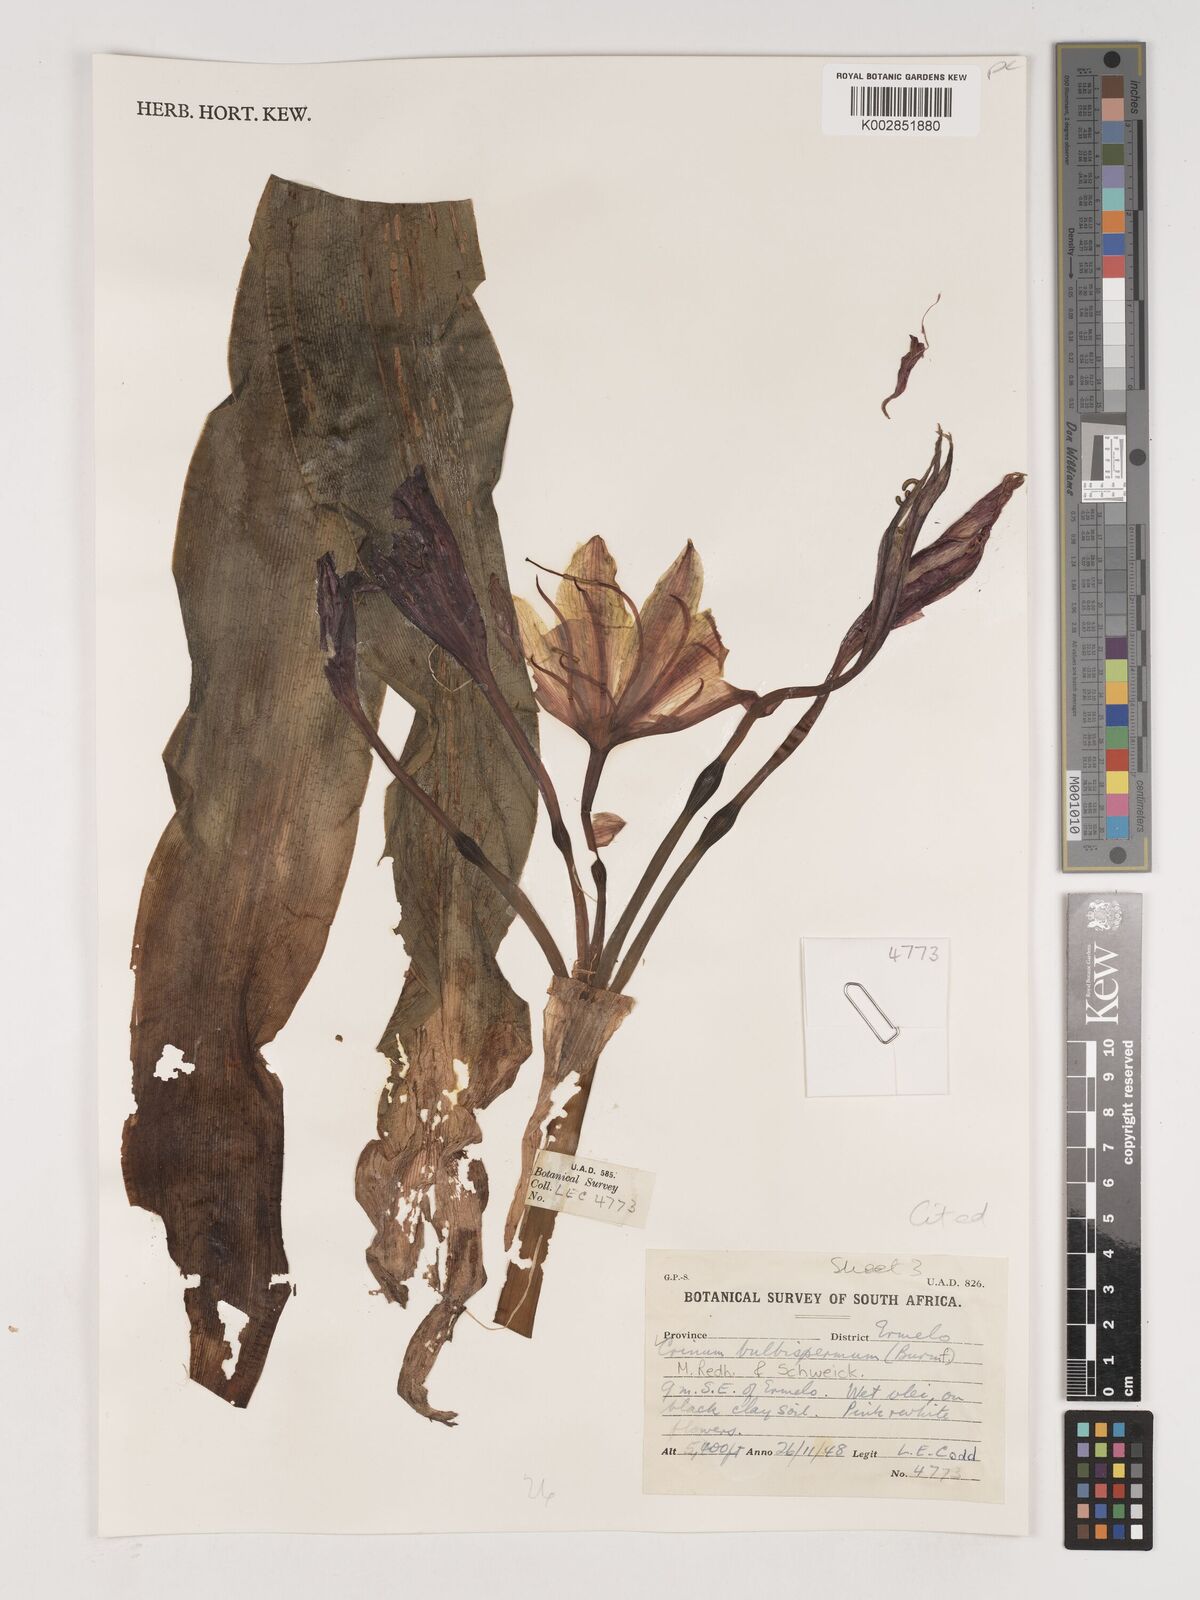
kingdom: Plantae
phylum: Tracheophyta
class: Liliopsida
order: Asparagales
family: Amaryllidaceae
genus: Crinum
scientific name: Crinum bulbispermum
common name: Hardy swamplily
